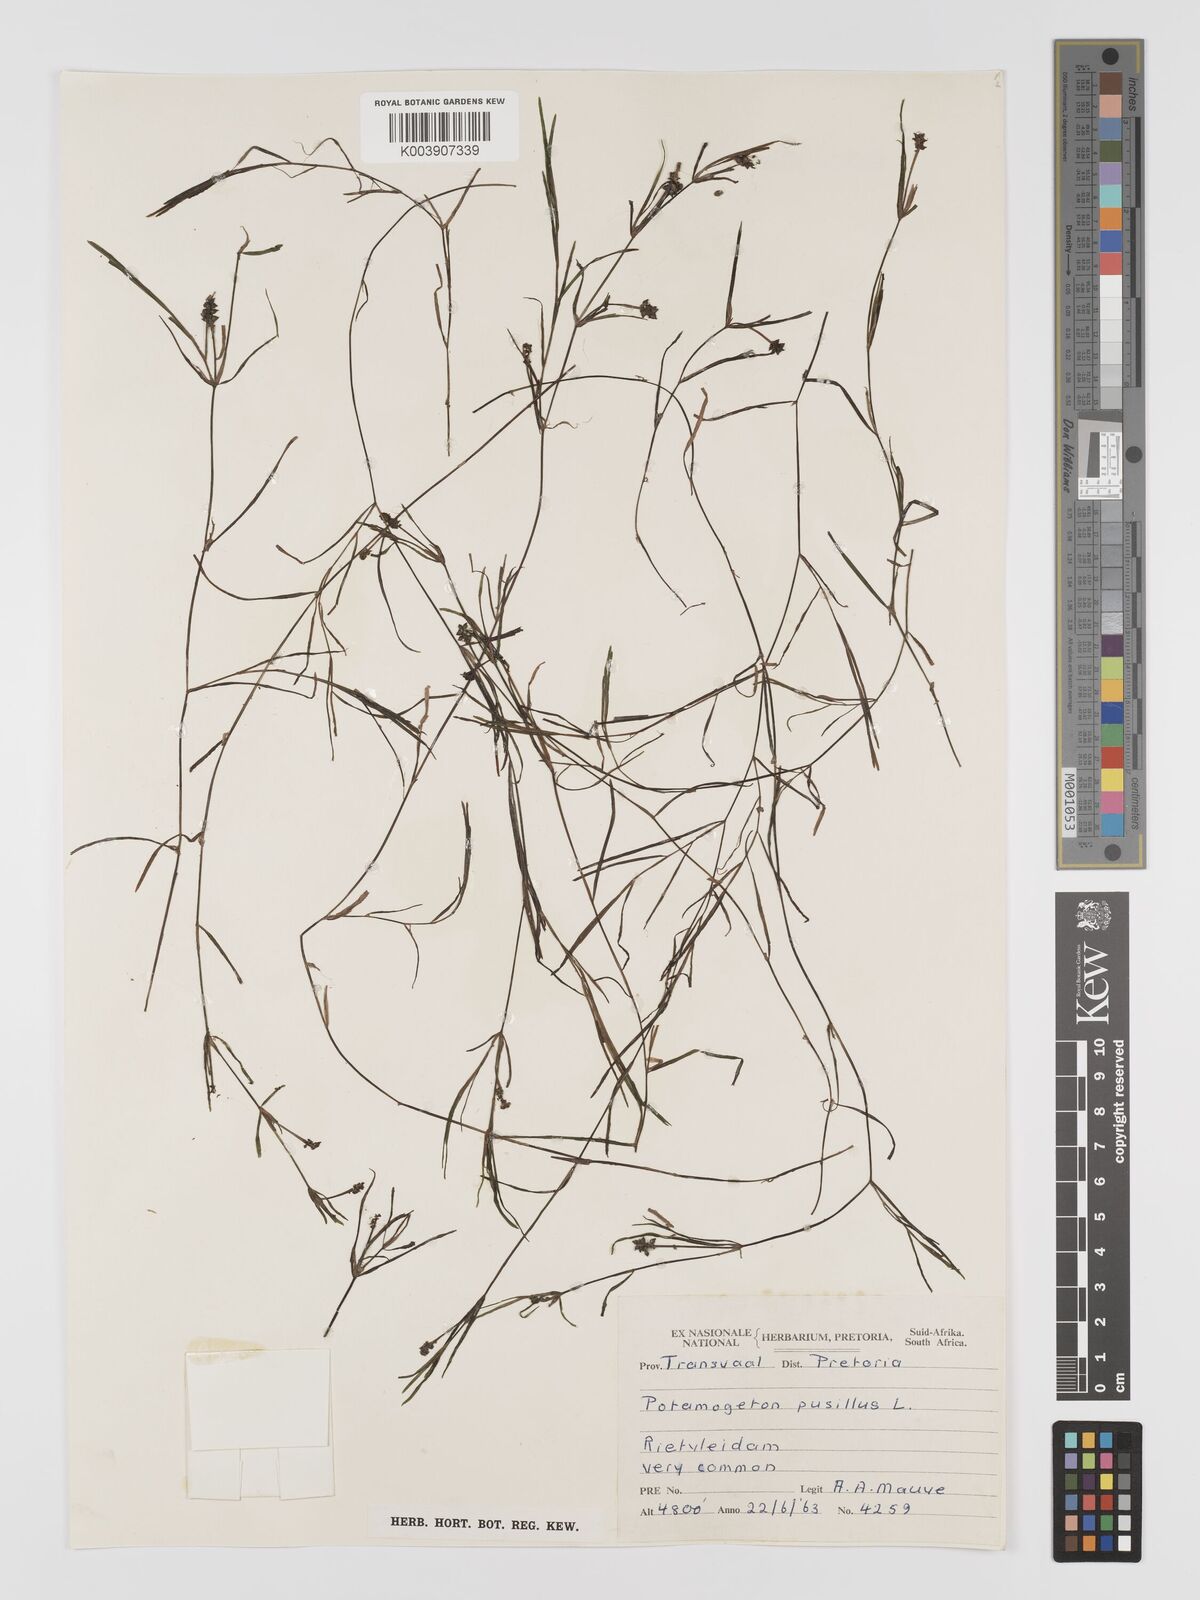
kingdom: Plantae
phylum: Tracheophyta
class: Liliopsida
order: Alismatales
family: Potamogetonaceae
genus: Potamogeton
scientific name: Potamogeton pusillus
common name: Lesser pondweed
